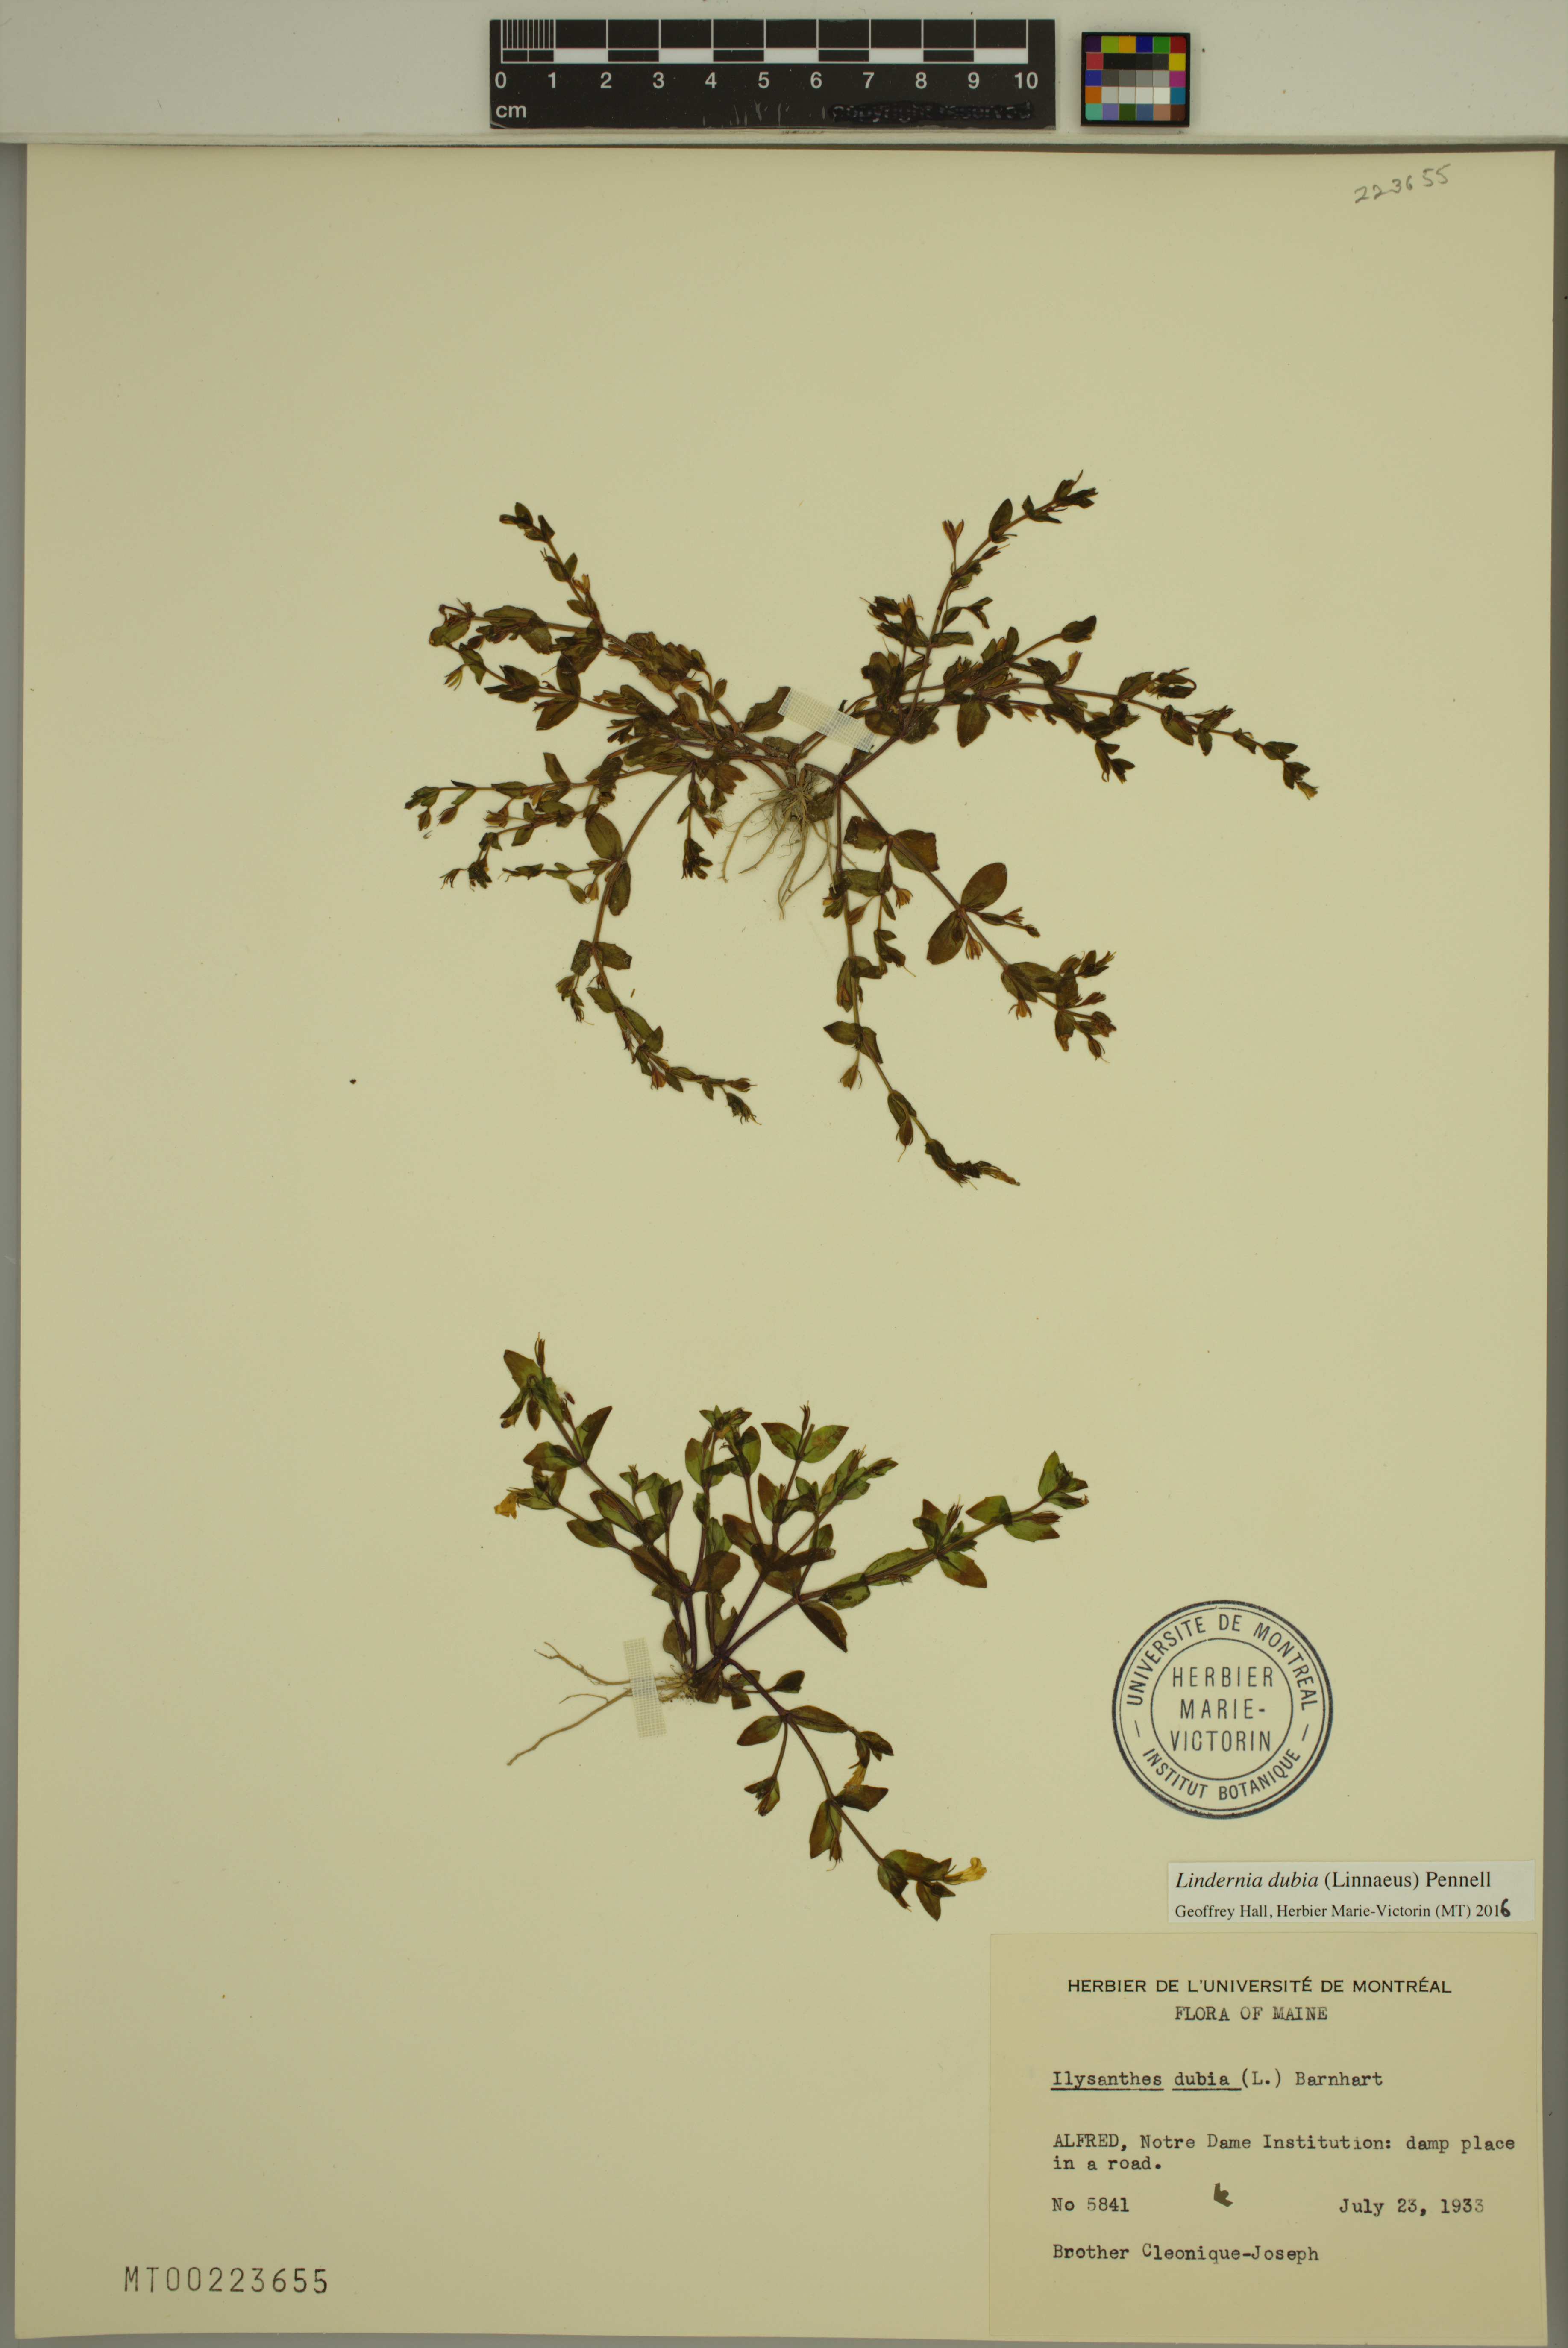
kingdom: Plantae
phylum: Tracheophyta
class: Magnoliopsida
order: Lamiales
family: Linderniaceae
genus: Lindernia
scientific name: Lindernia dubia
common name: Annual false pimpernel
